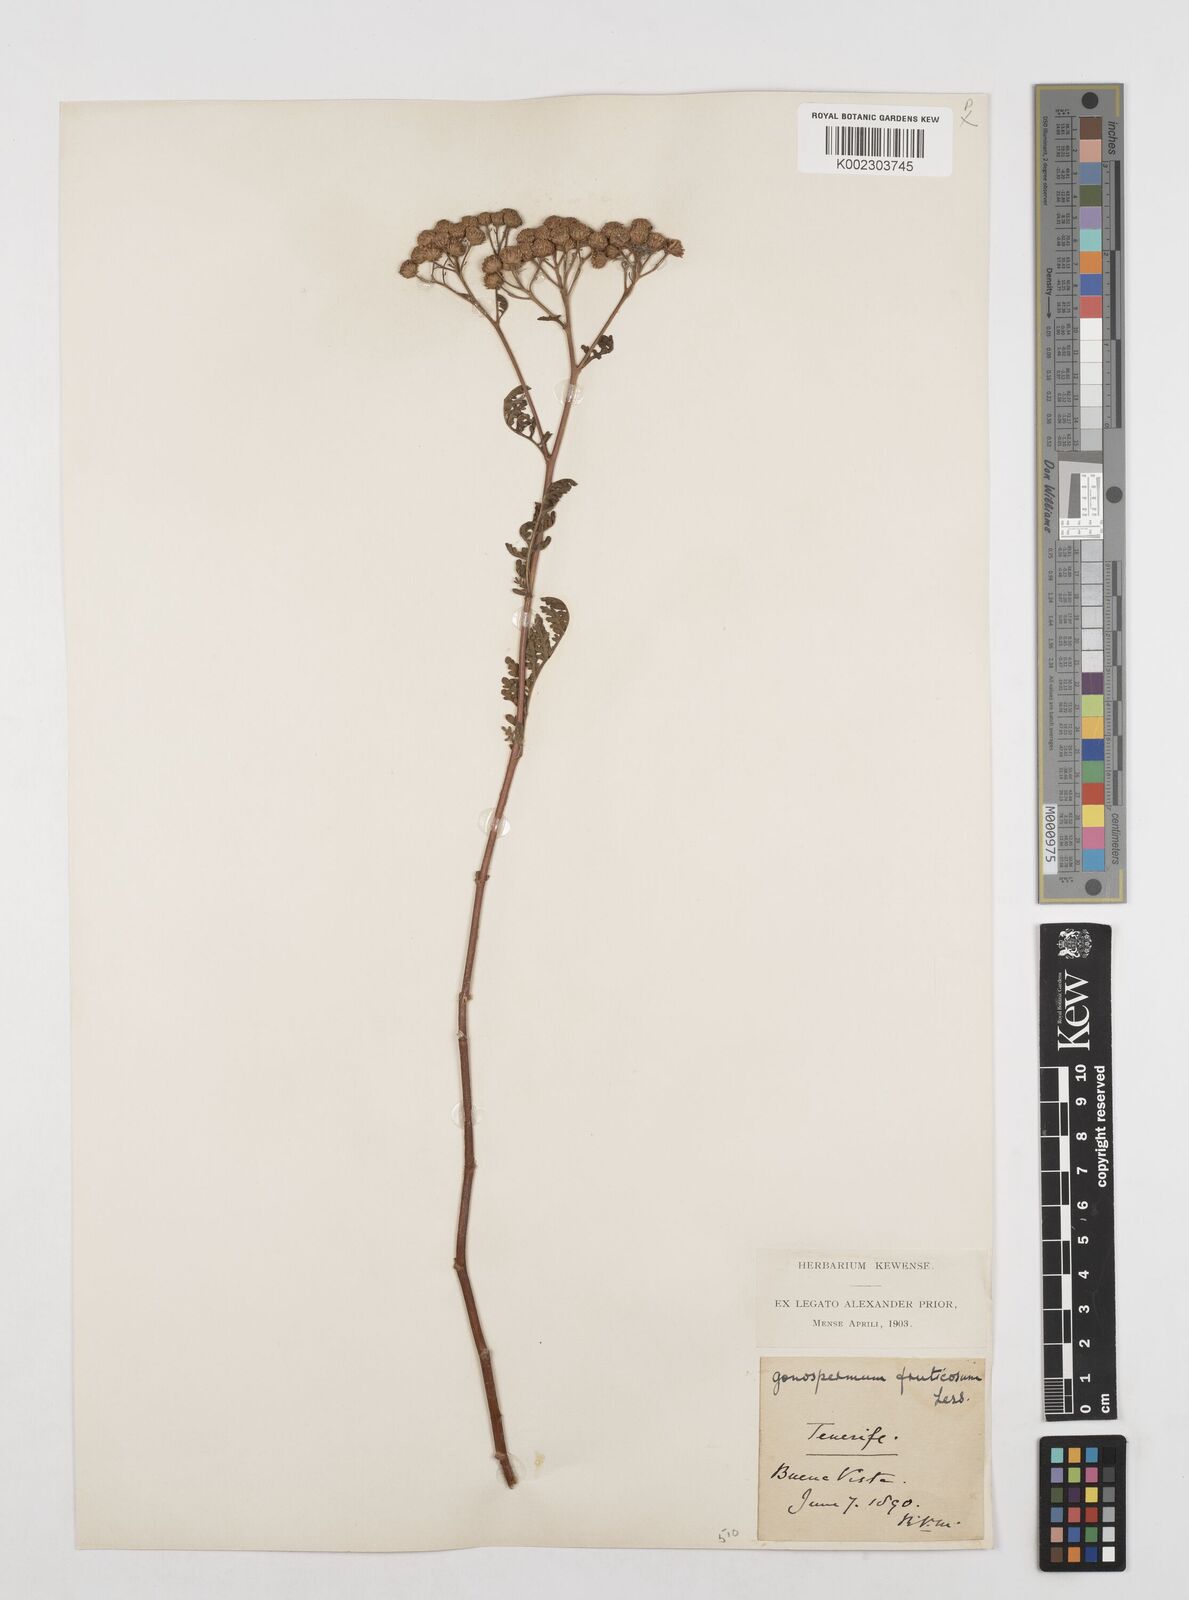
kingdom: Plantae
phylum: Tracheophyta
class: Magnoliopsida
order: Asterales
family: Asteraceae
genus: Gonospermum
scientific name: Gonospermum fruticosum
